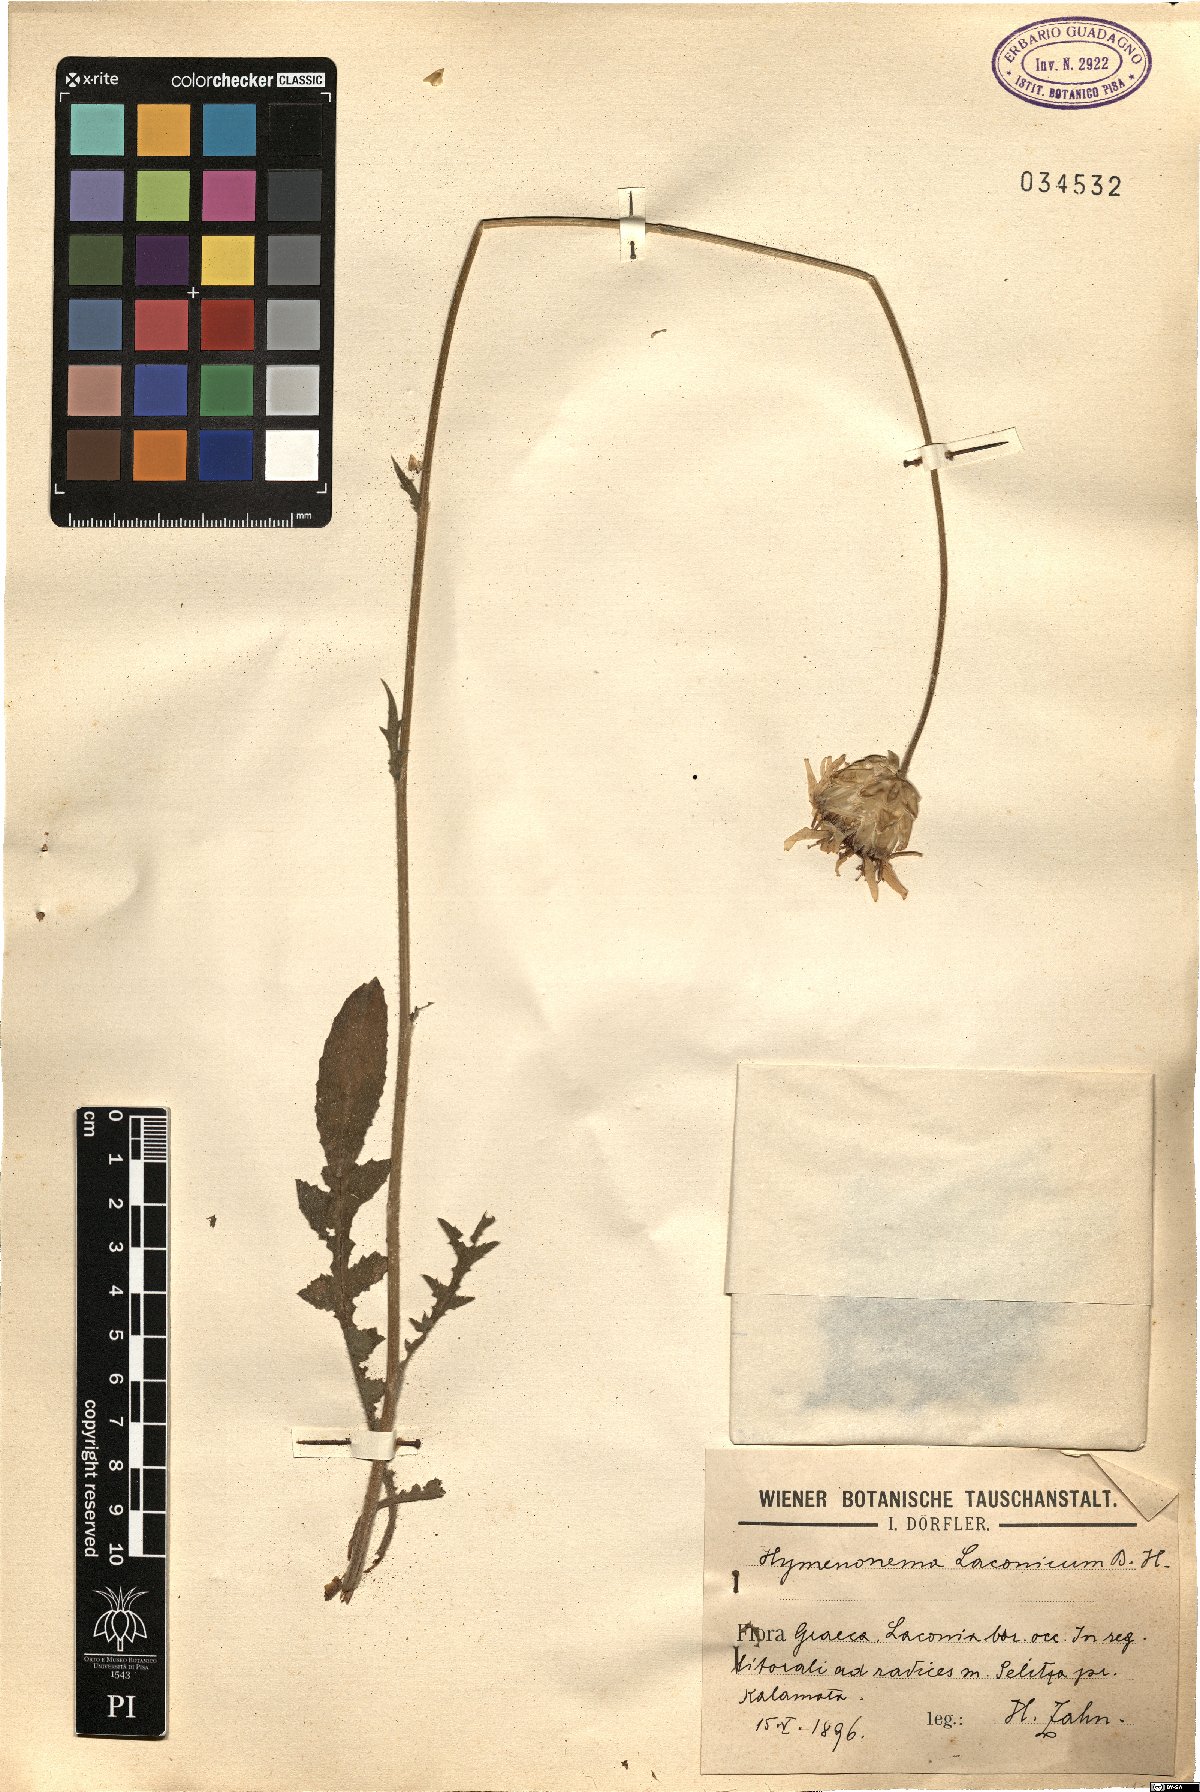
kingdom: Plantae
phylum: Tracheophyta
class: Magnoliopsida
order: Asterales
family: Asteraceae
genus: Hymenonema
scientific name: Hymenonema laconicum
